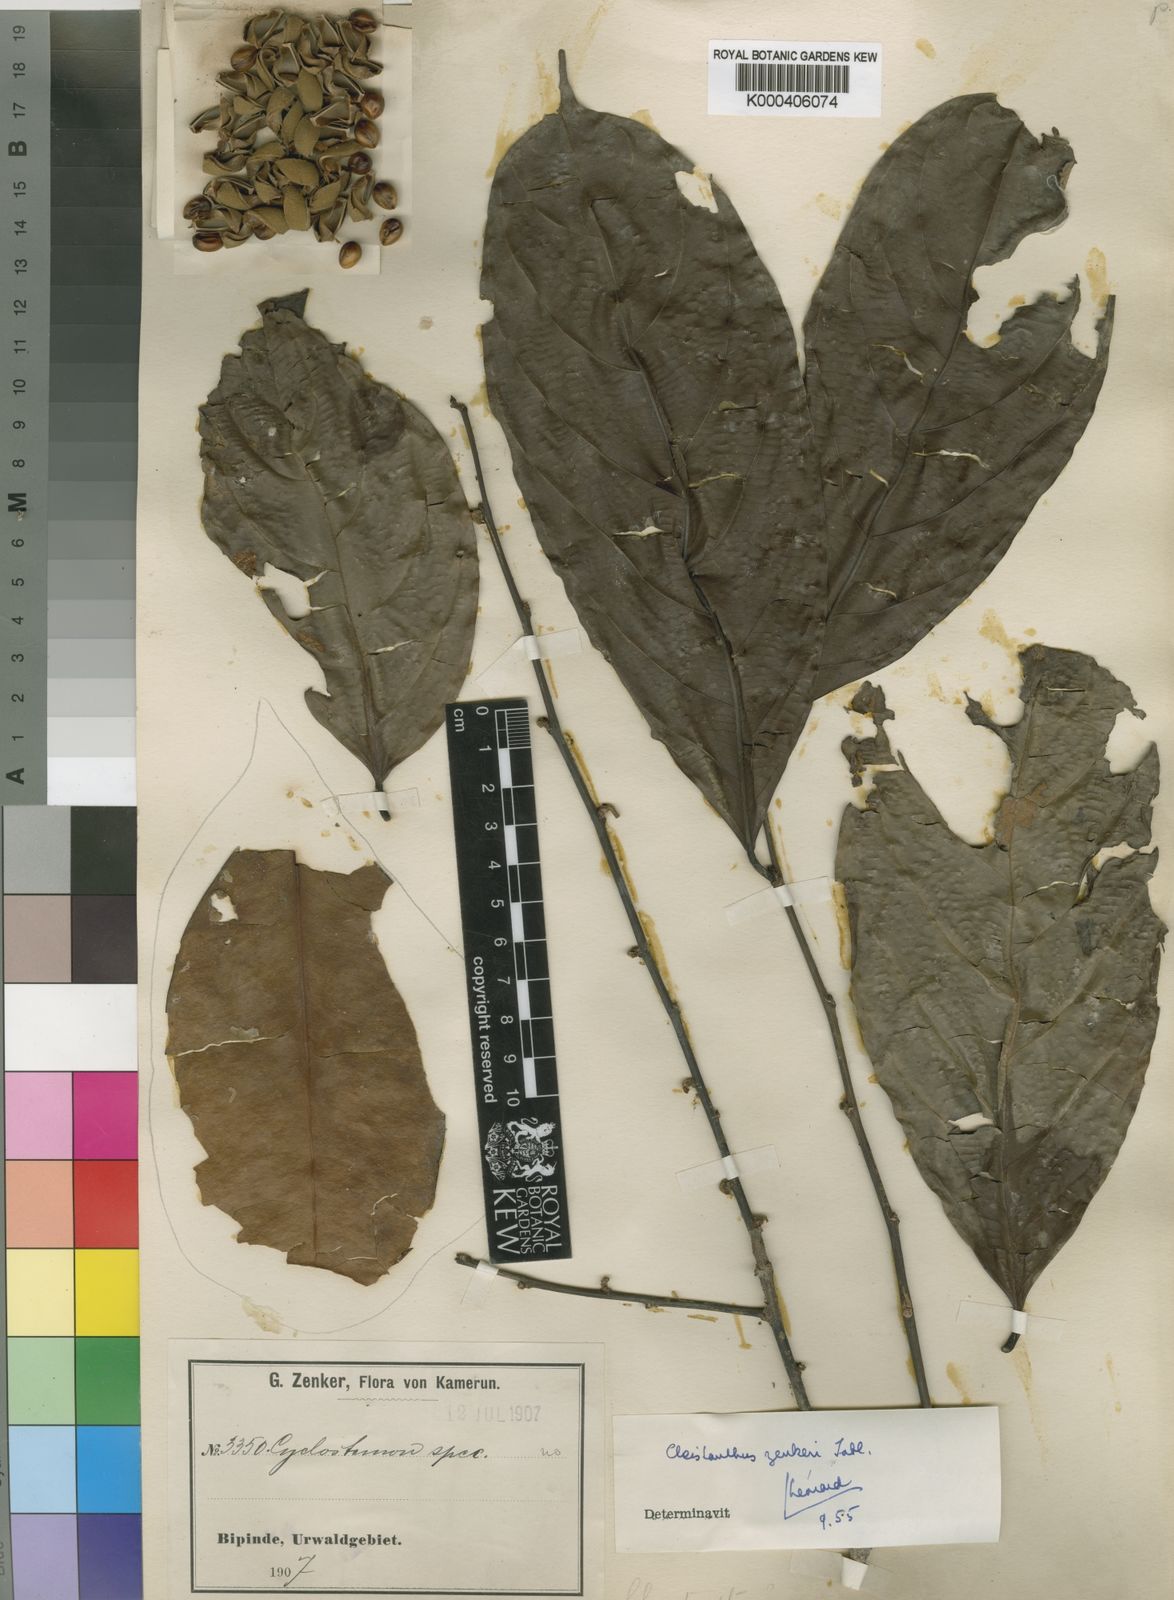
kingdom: Plantae
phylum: Tracheophyta
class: Magnoliopsida
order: Malpighiales
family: Phyllanthaceae
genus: Cleistanthus
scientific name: Cleistanthus zenkeri
